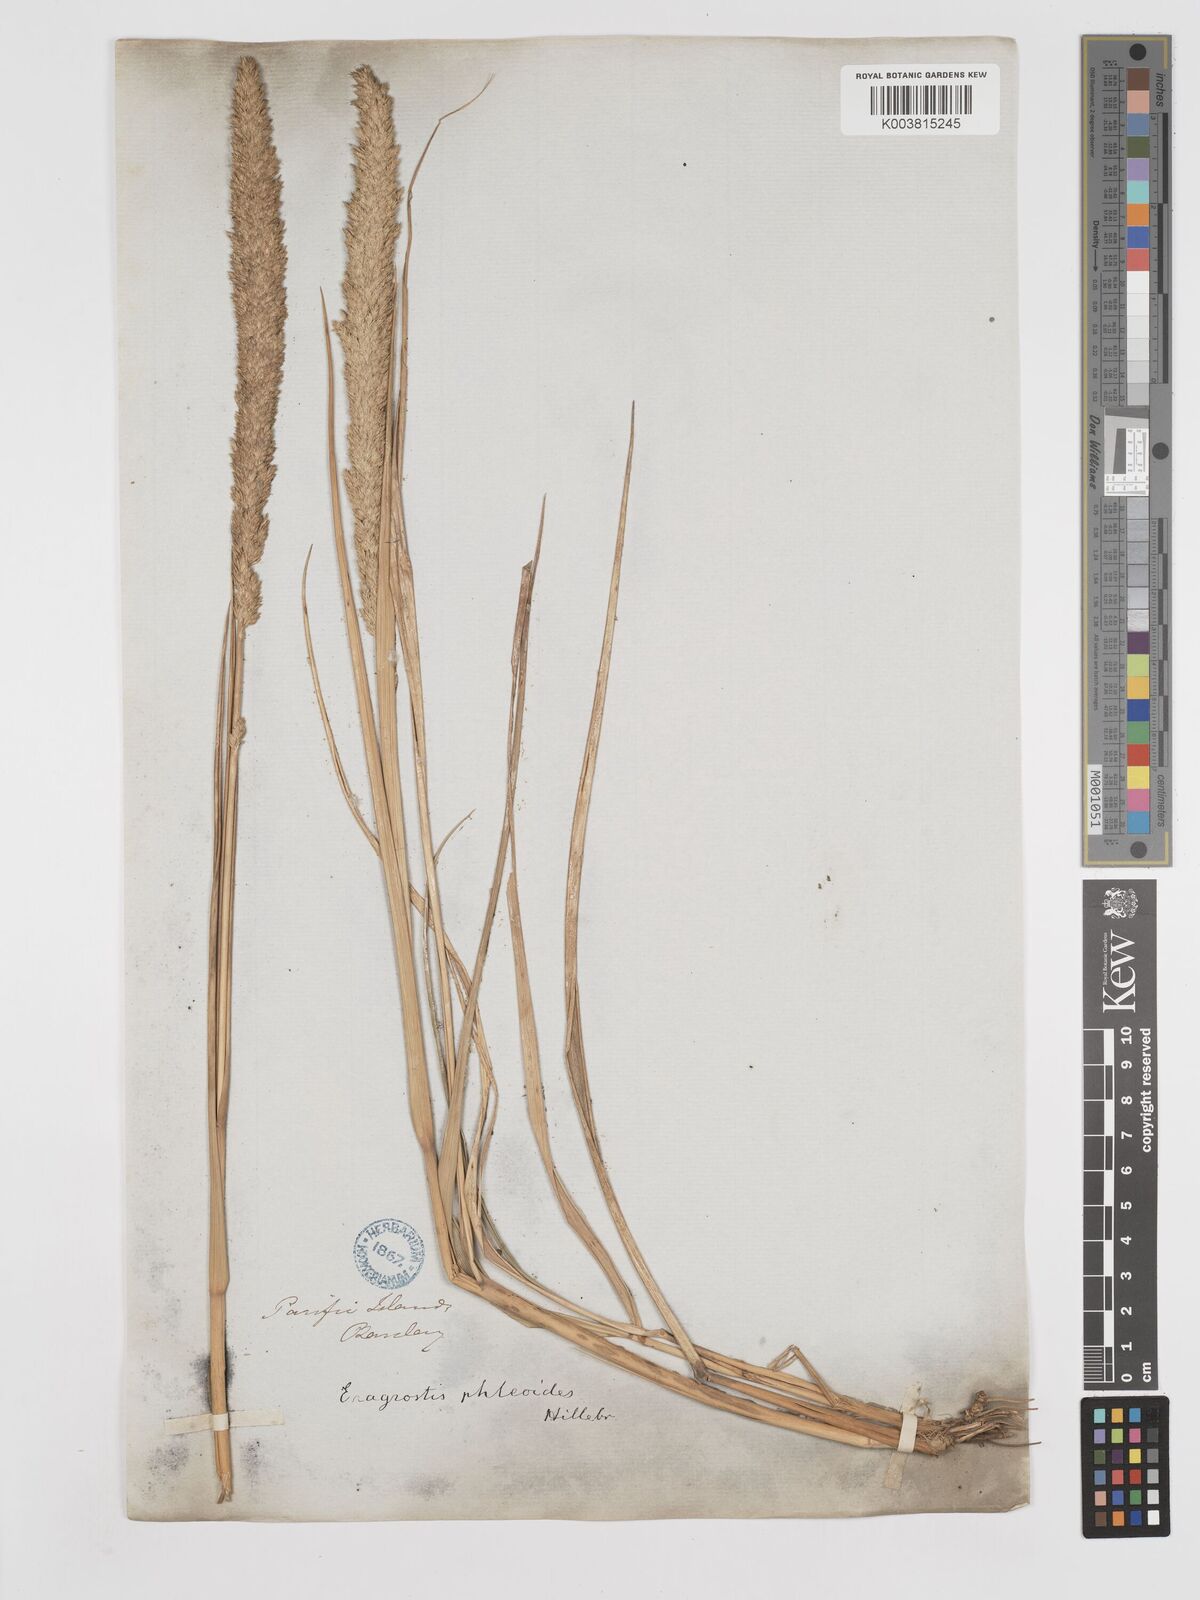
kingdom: Plantae
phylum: Tracheophyta
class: Liliopsida
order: Poales
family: Poaceae
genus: Eragrostis
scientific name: Eragrostis variabilis
